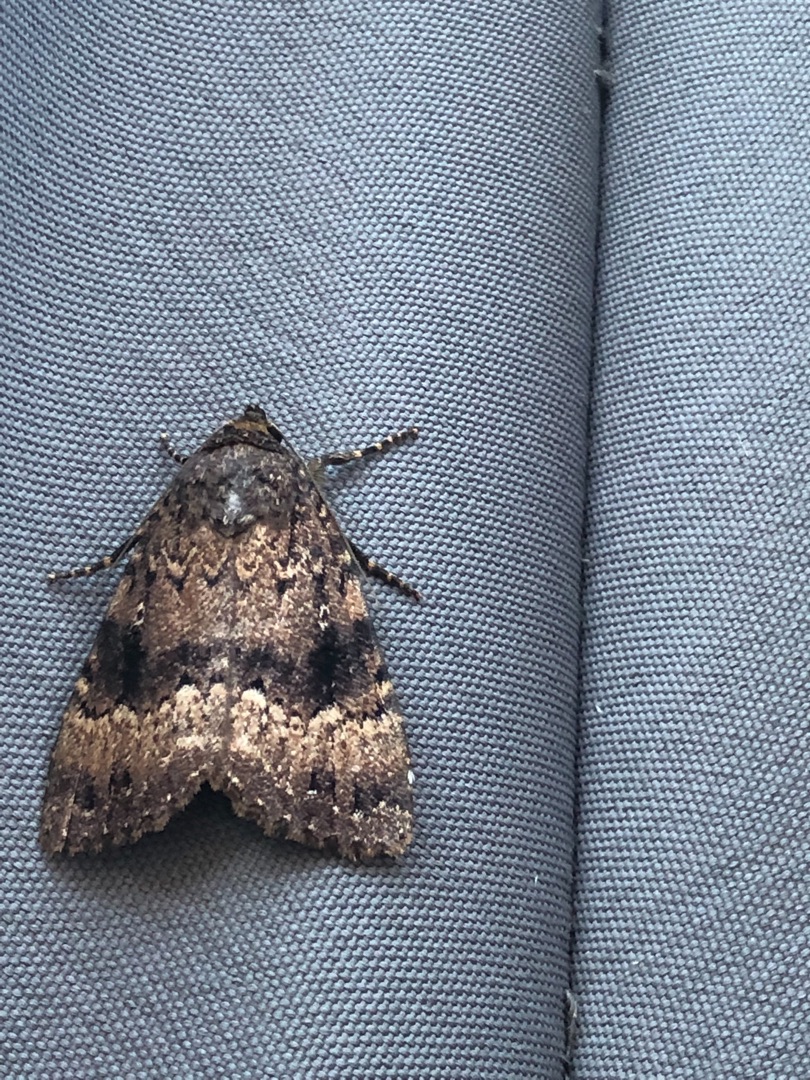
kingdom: Animalia
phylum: Arthropoda
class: Insecta
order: Lepidoptera
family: Noctuidae
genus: Amphipyra
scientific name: Amphipyra pyramidea
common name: Pyramideugle
